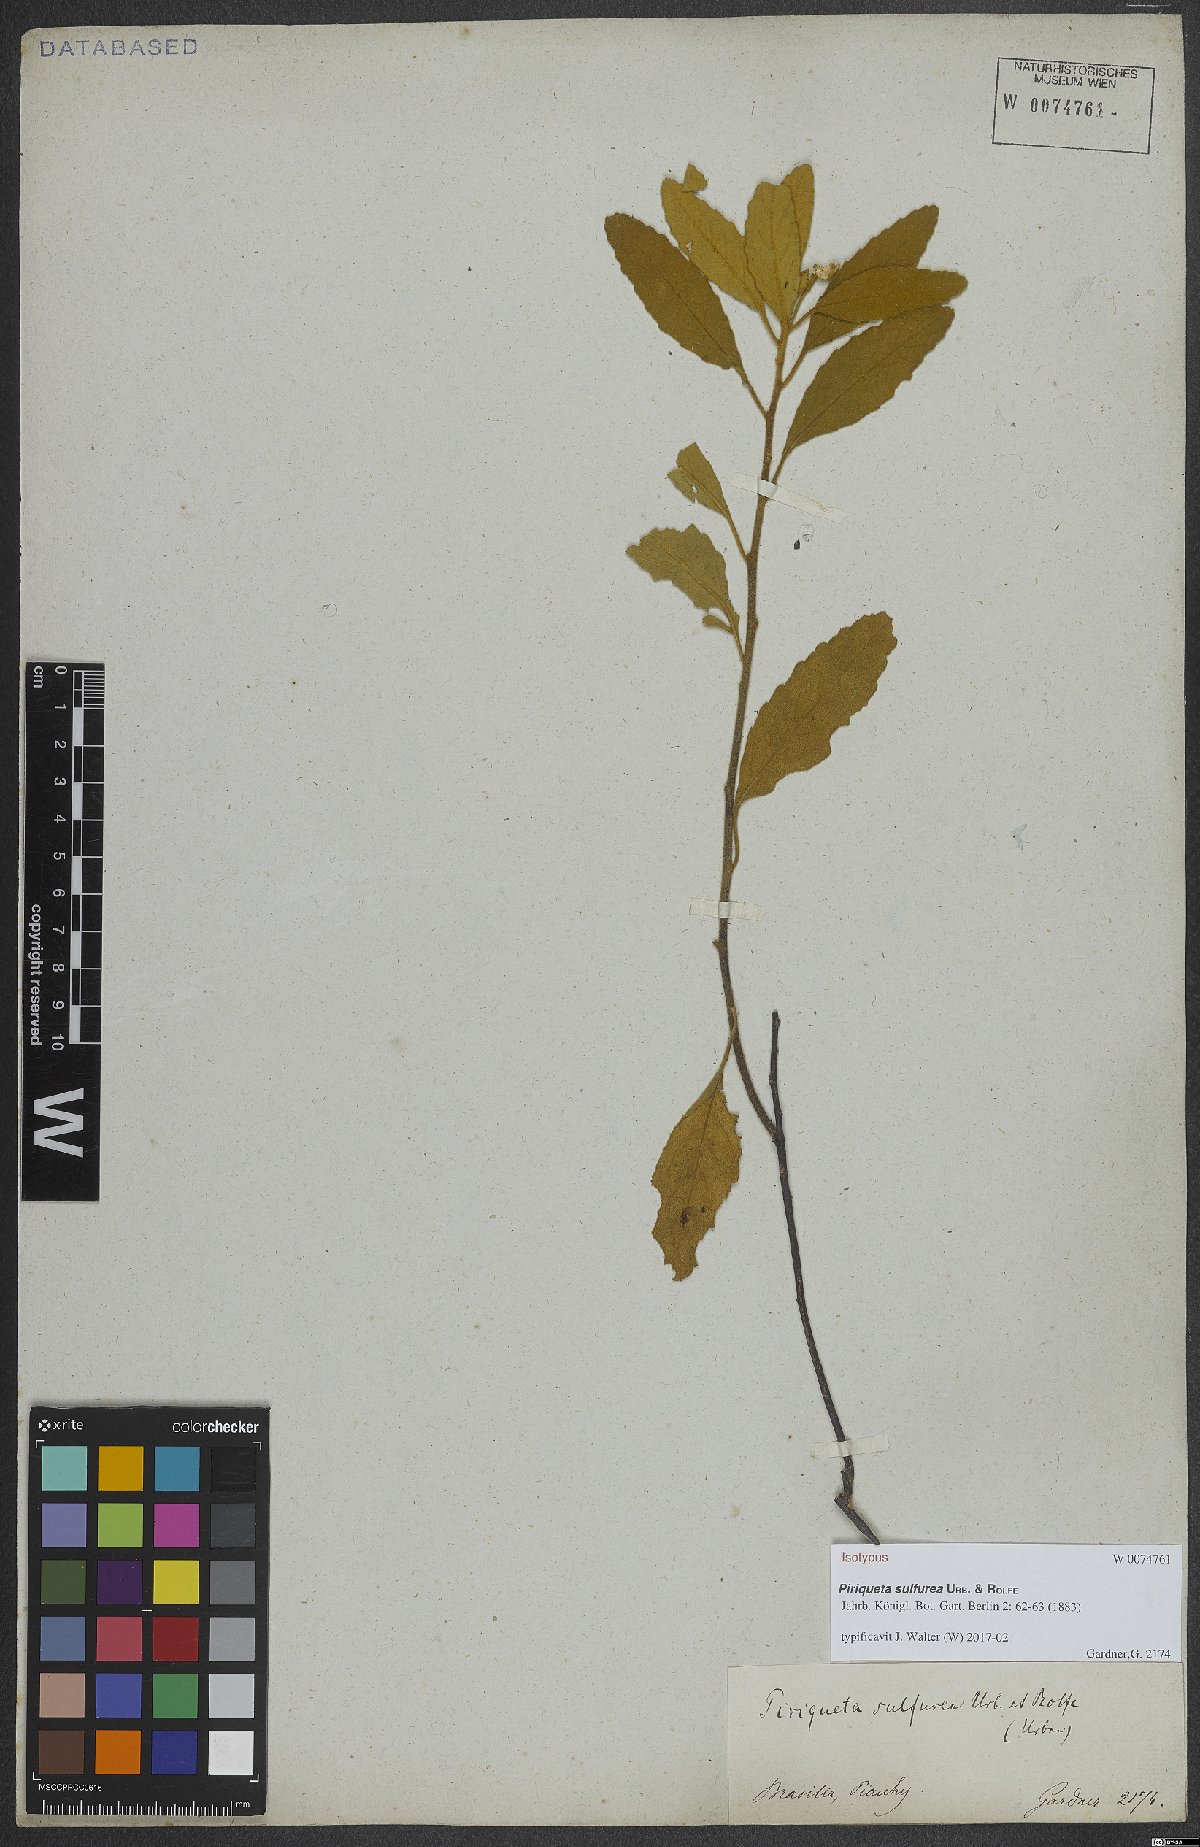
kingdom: Plantae
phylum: Tracheophyta
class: Magnoliopsida
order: Malpighiales
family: Turneraceae
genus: Piriqueta
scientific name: Piriqueta sulfurea
